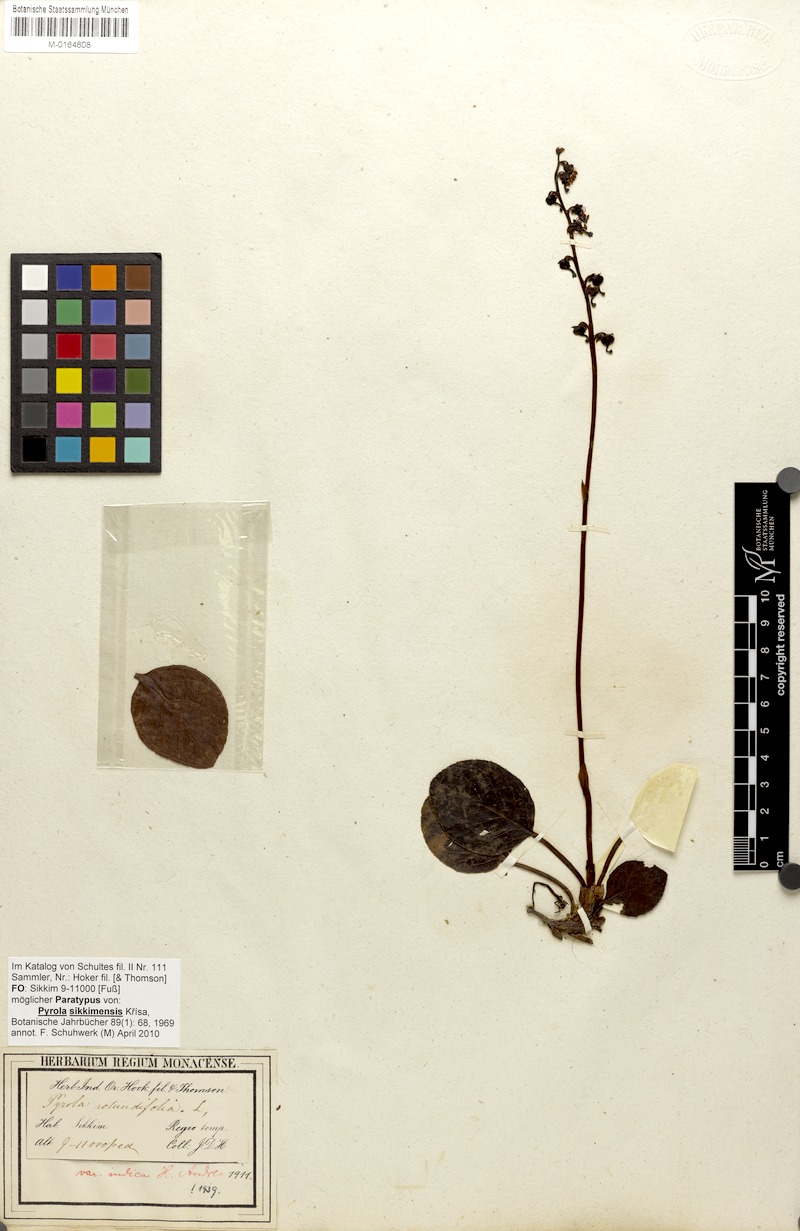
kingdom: Plantae
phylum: Tracheophyta
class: Magnoliopsida
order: Ericales
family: Ericaceae
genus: Pyrola
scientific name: Pyrola asarifolia
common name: Bog wintergreen
